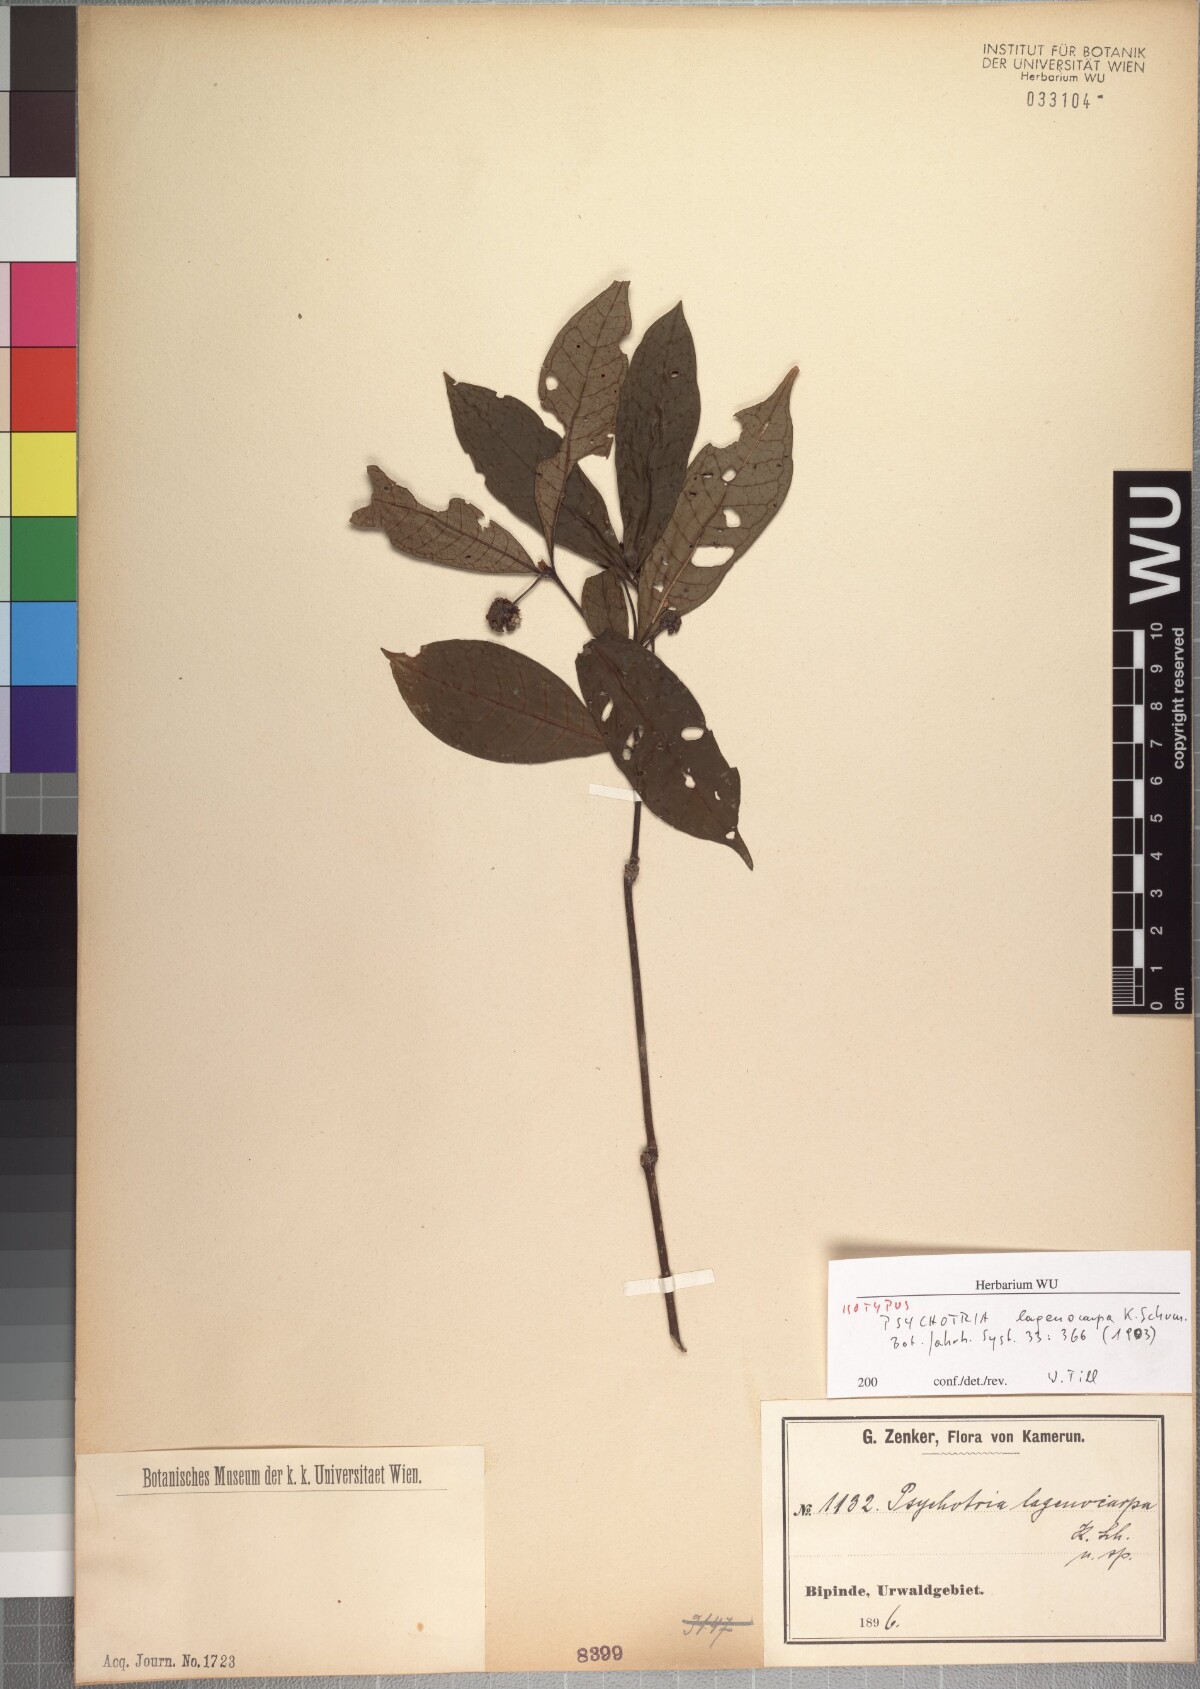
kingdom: Plantae
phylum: Tracheophyta
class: Magnoliopsida
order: Gentianales
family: Rubiaceae
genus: Psychotria
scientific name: Psychotria subobliqua
